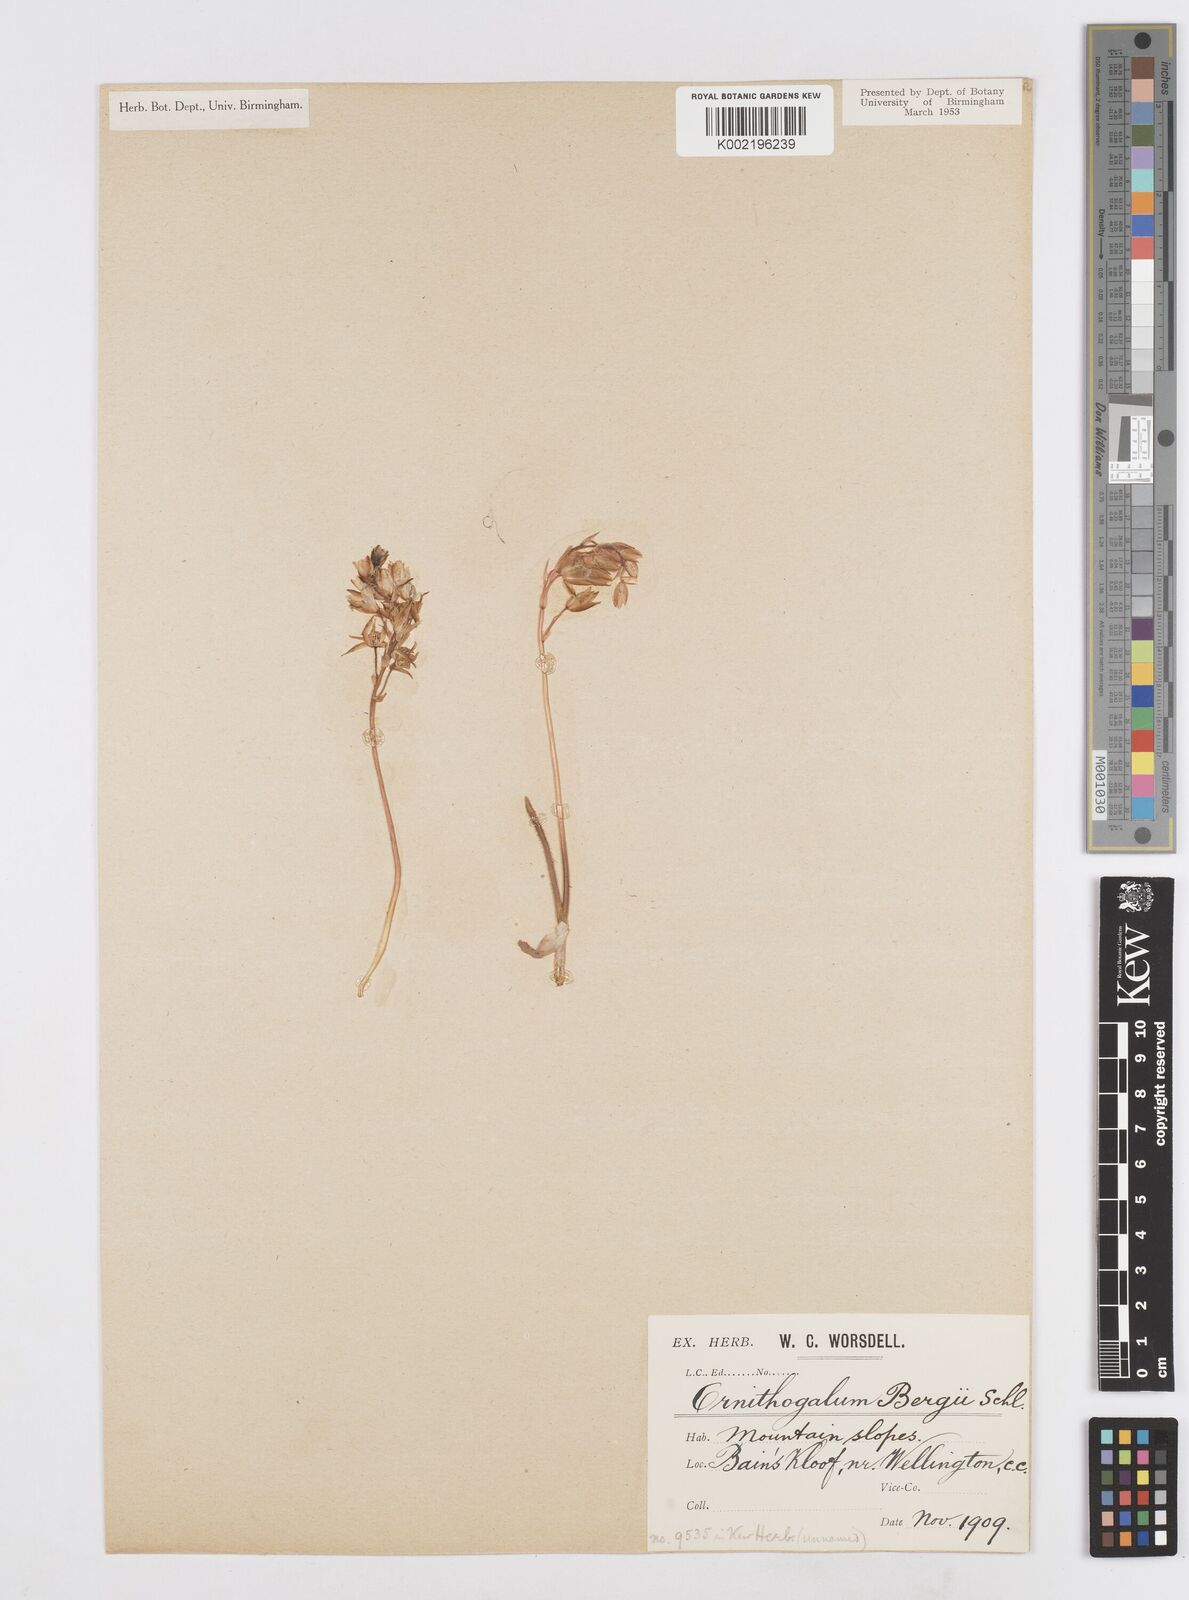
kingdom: Plantae
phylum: Tracheophyta
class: Liliopsida
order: Asparagales
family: Asparagaceae
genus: Ornithogalum
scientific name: Ornithogalum hispidum
